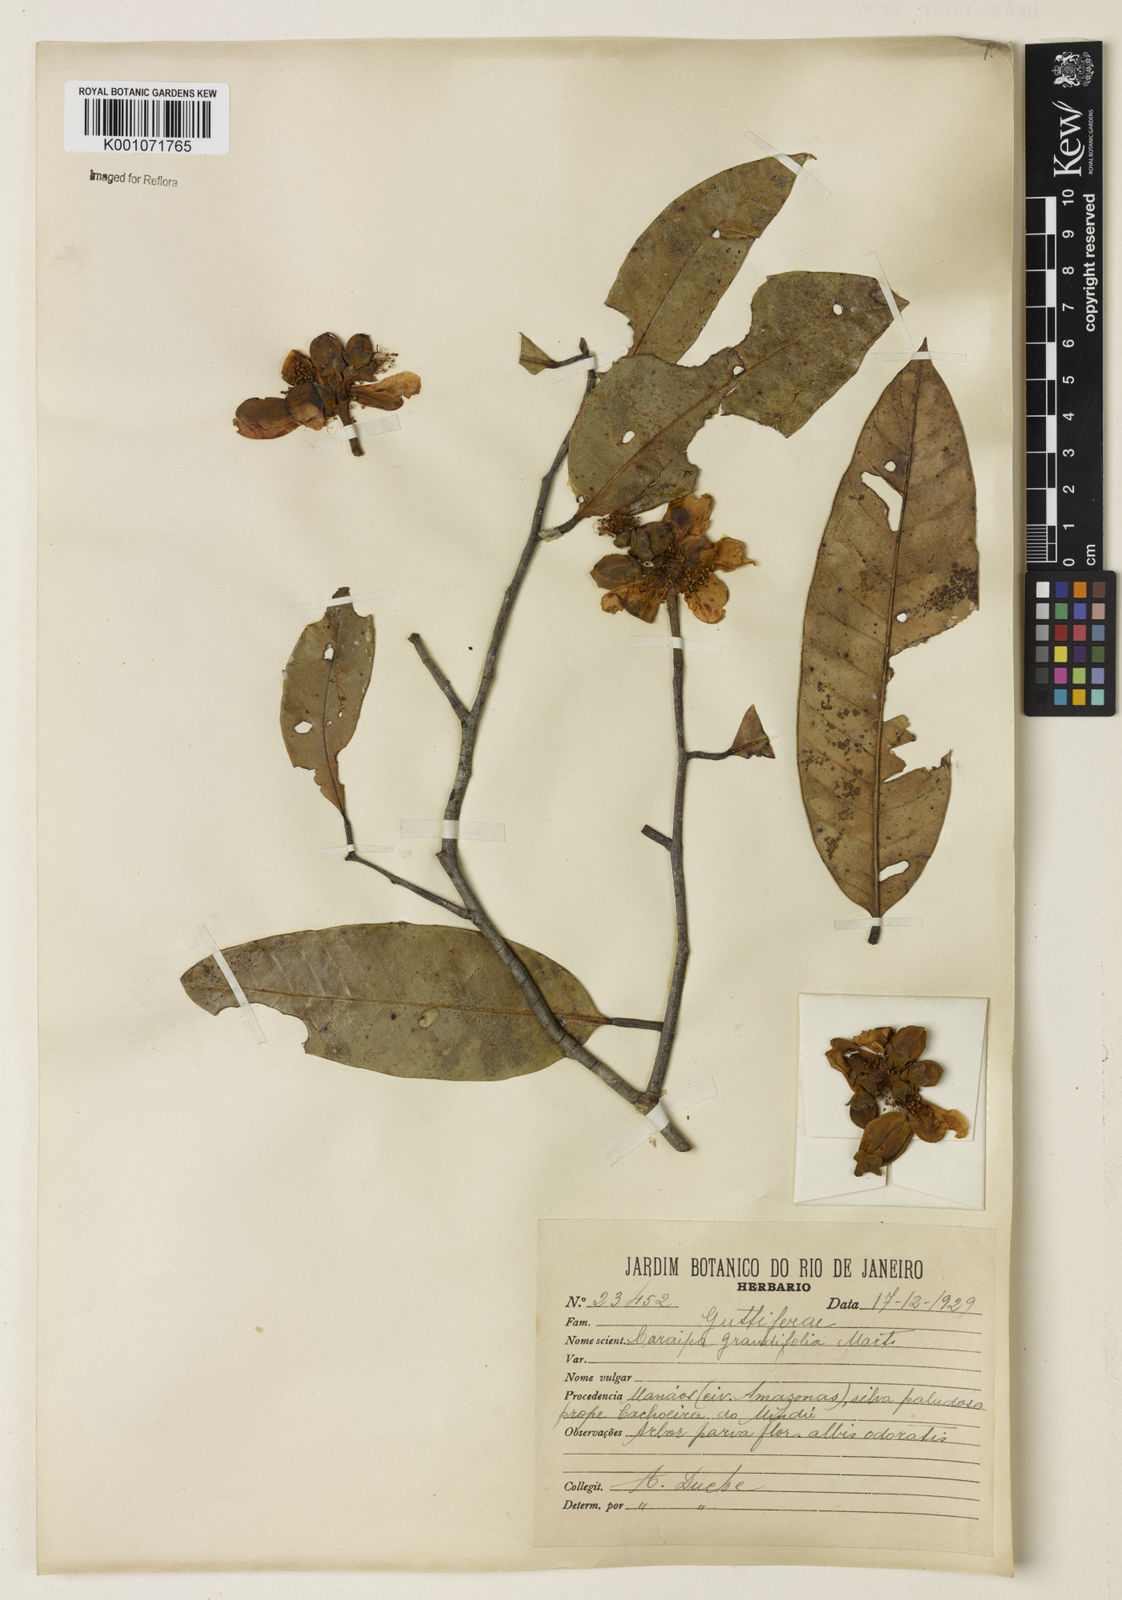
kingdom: Plantae
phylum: Tracheophyta
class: Magnoliopsida
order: Malpighiales
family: Calophyllaceae
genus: Caraipa
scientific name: Caraipa grandifolia
